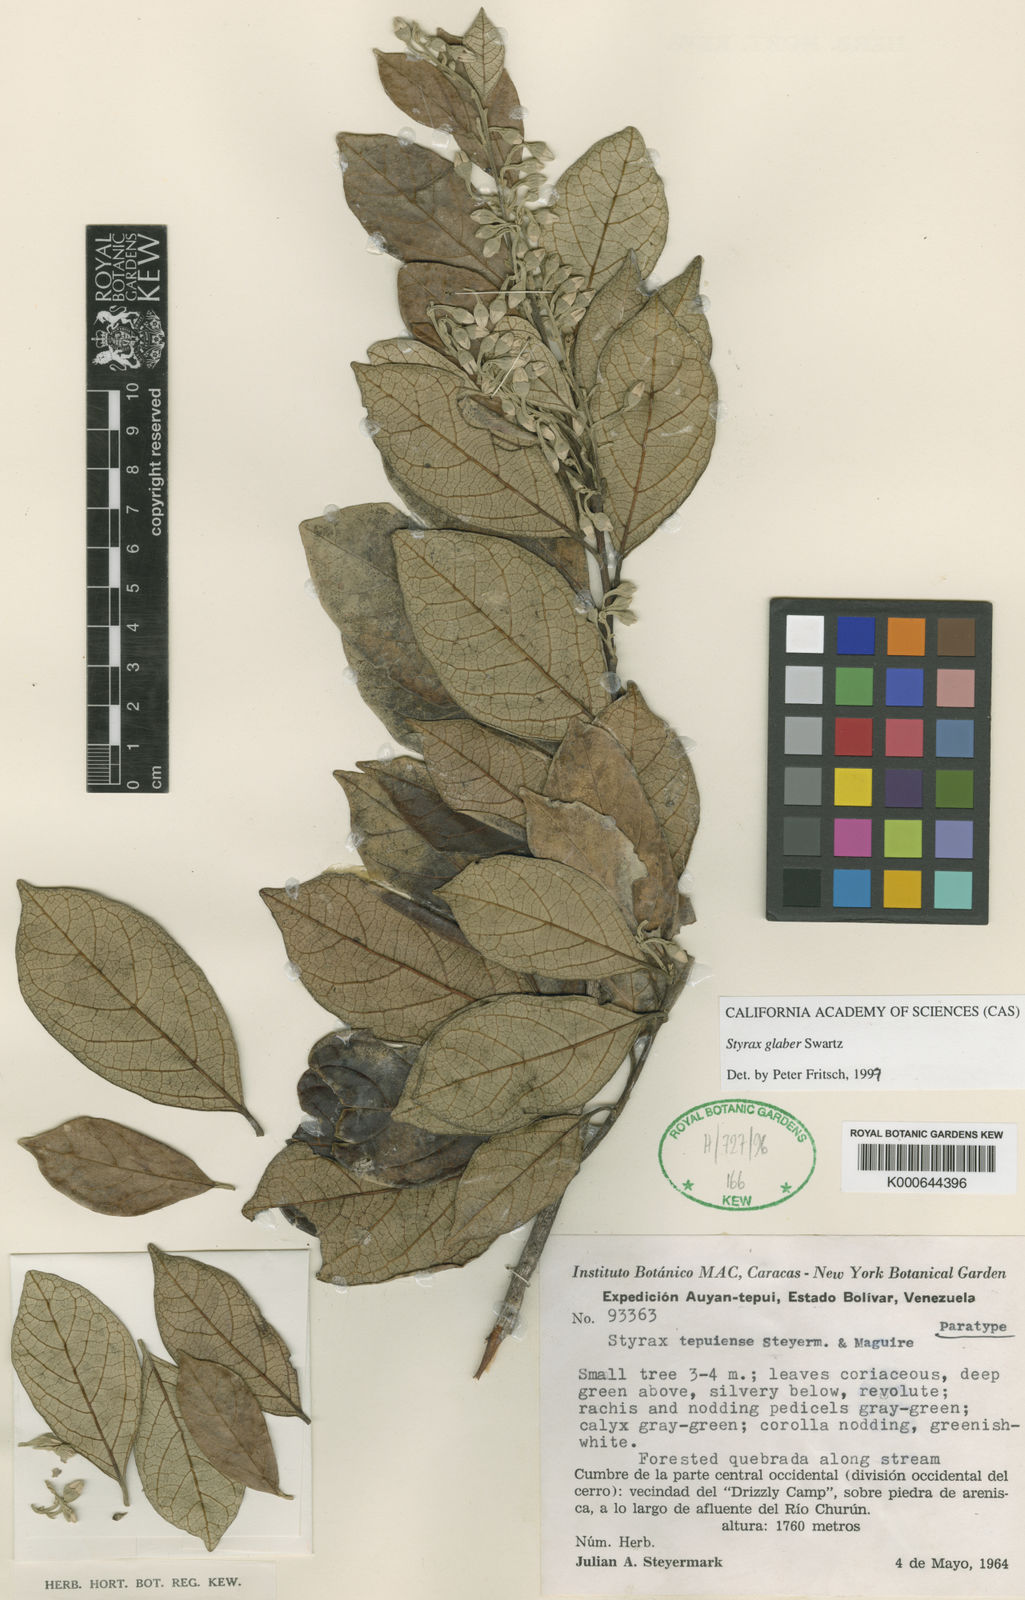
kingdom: Plantae
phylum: Tracheophyta
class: Magnoliopsida
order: Ericales
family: Styracaceae
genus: Styrax
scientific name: Styrax glaber
